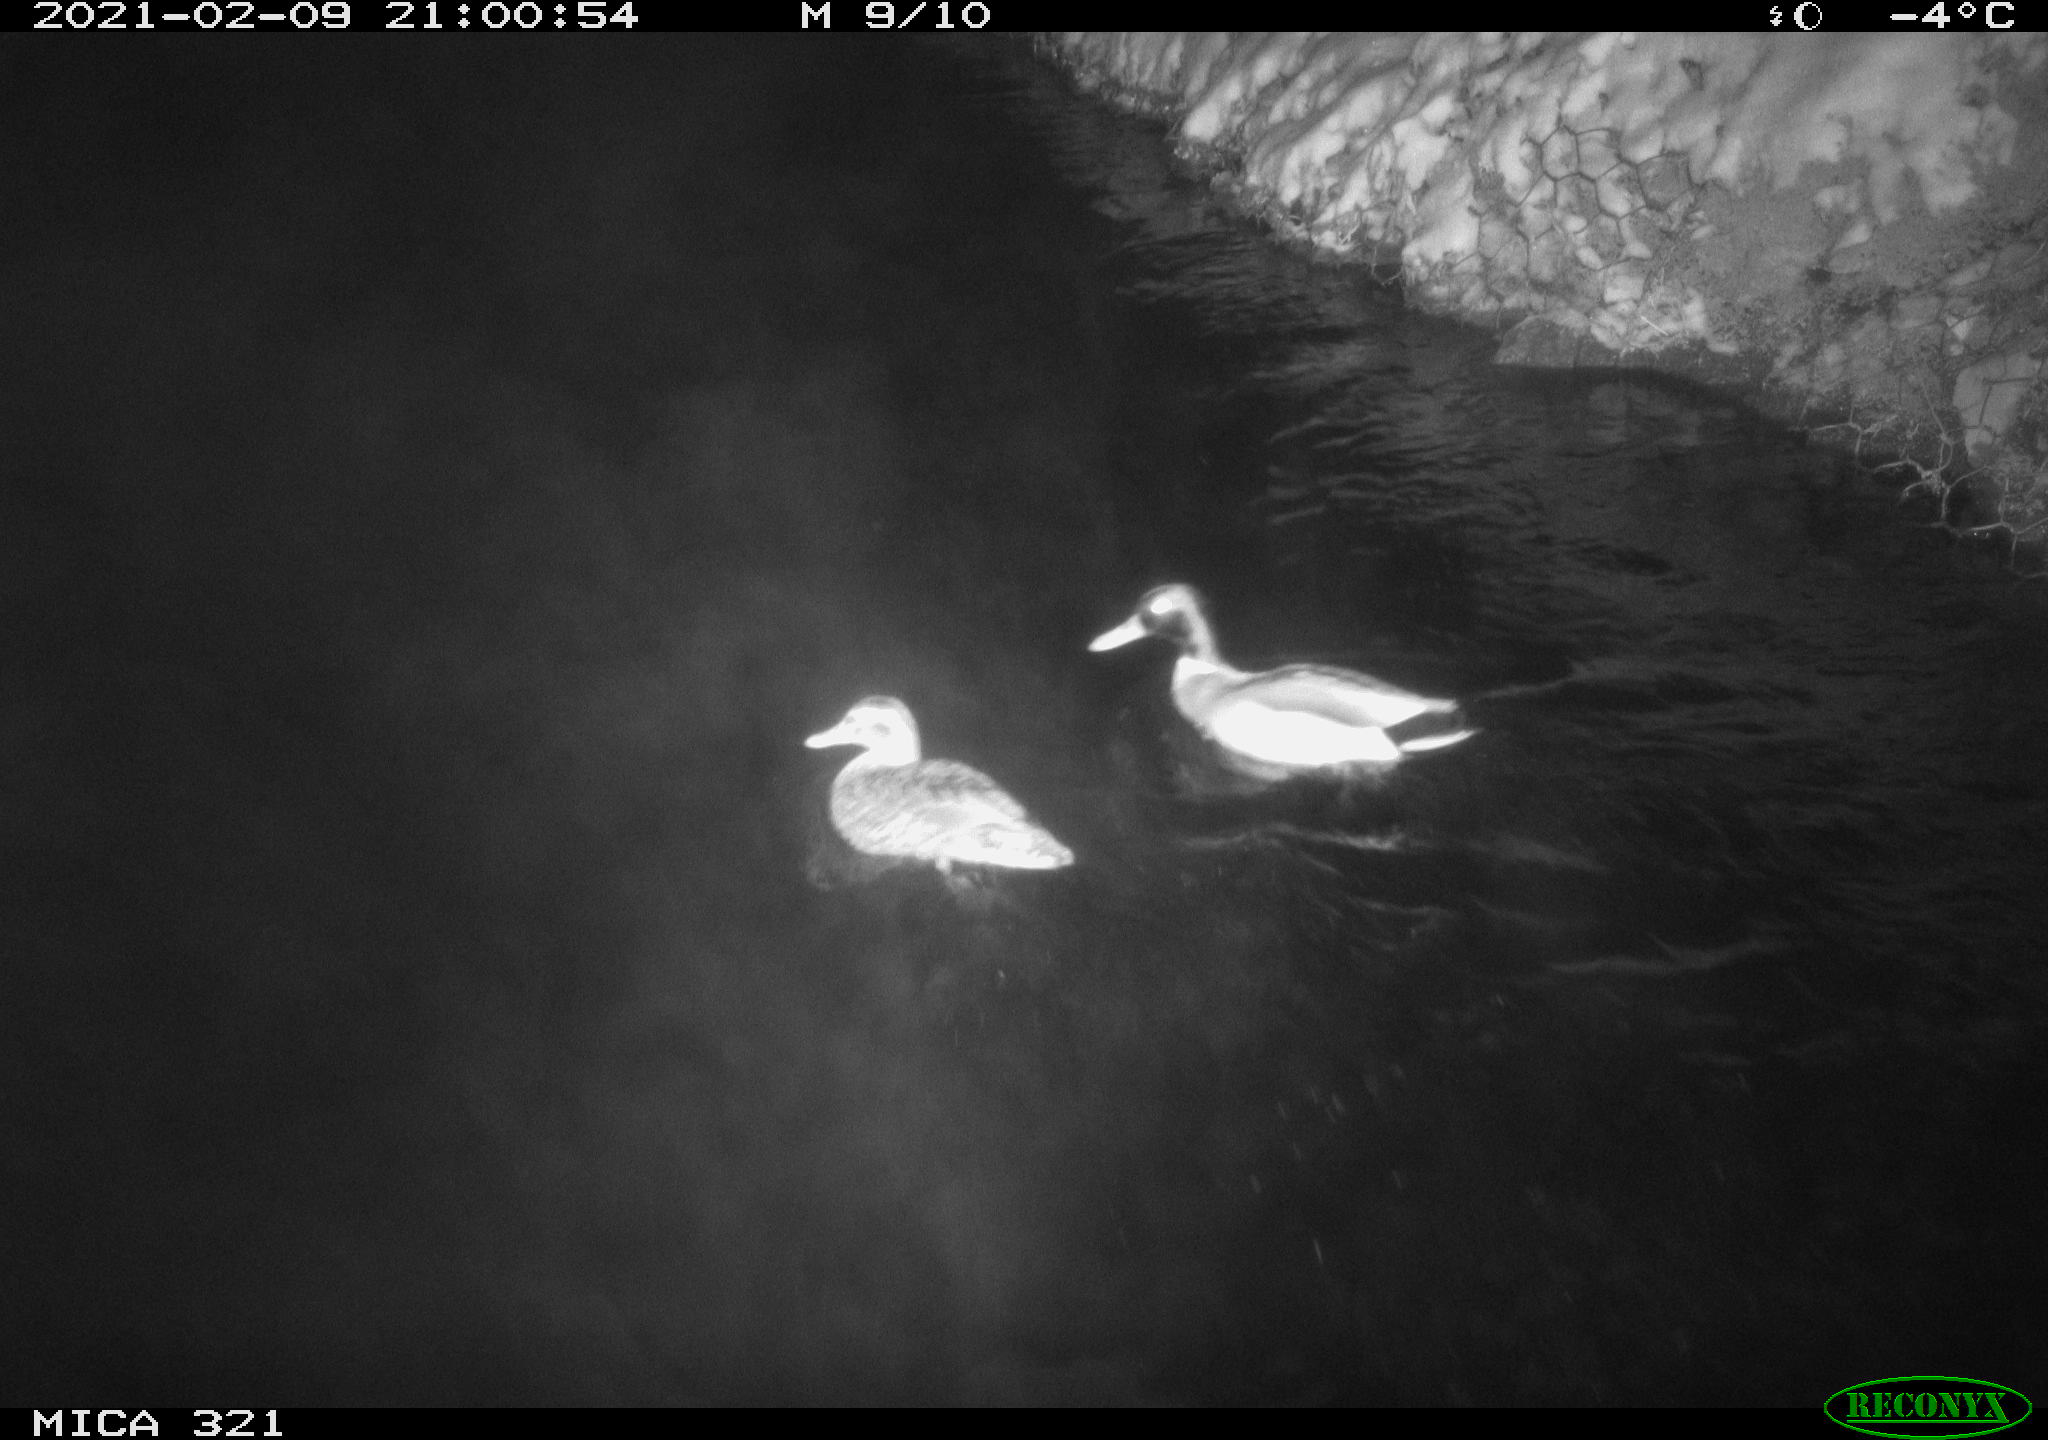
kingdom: Animalia
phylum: Chordata
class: Aves
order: Anseriformes
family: Anatidae
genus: Anas
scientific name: Anas platyrhynchos
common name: Mallard
